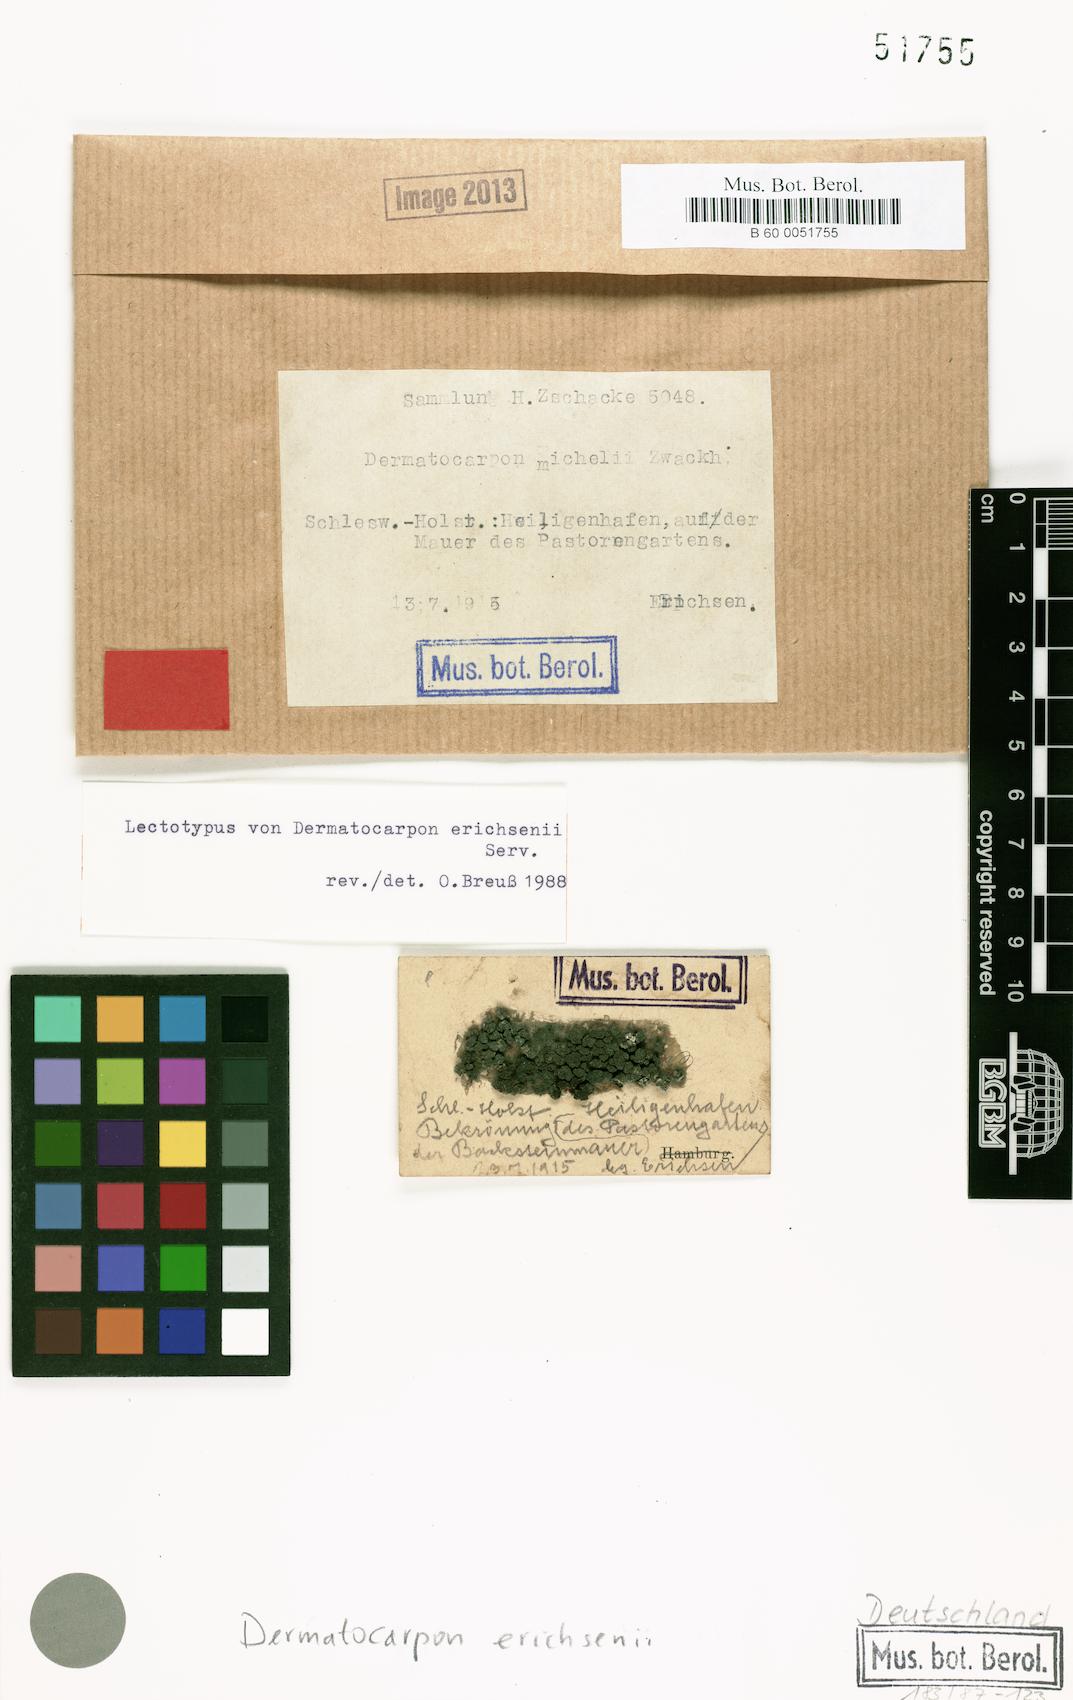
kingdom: Fungi
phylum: Ascomycota
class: Eurotiomycetes
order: Verrucariales
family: Verrucariaceae
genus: Dermatocarpon
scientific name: Dermatocarpon
